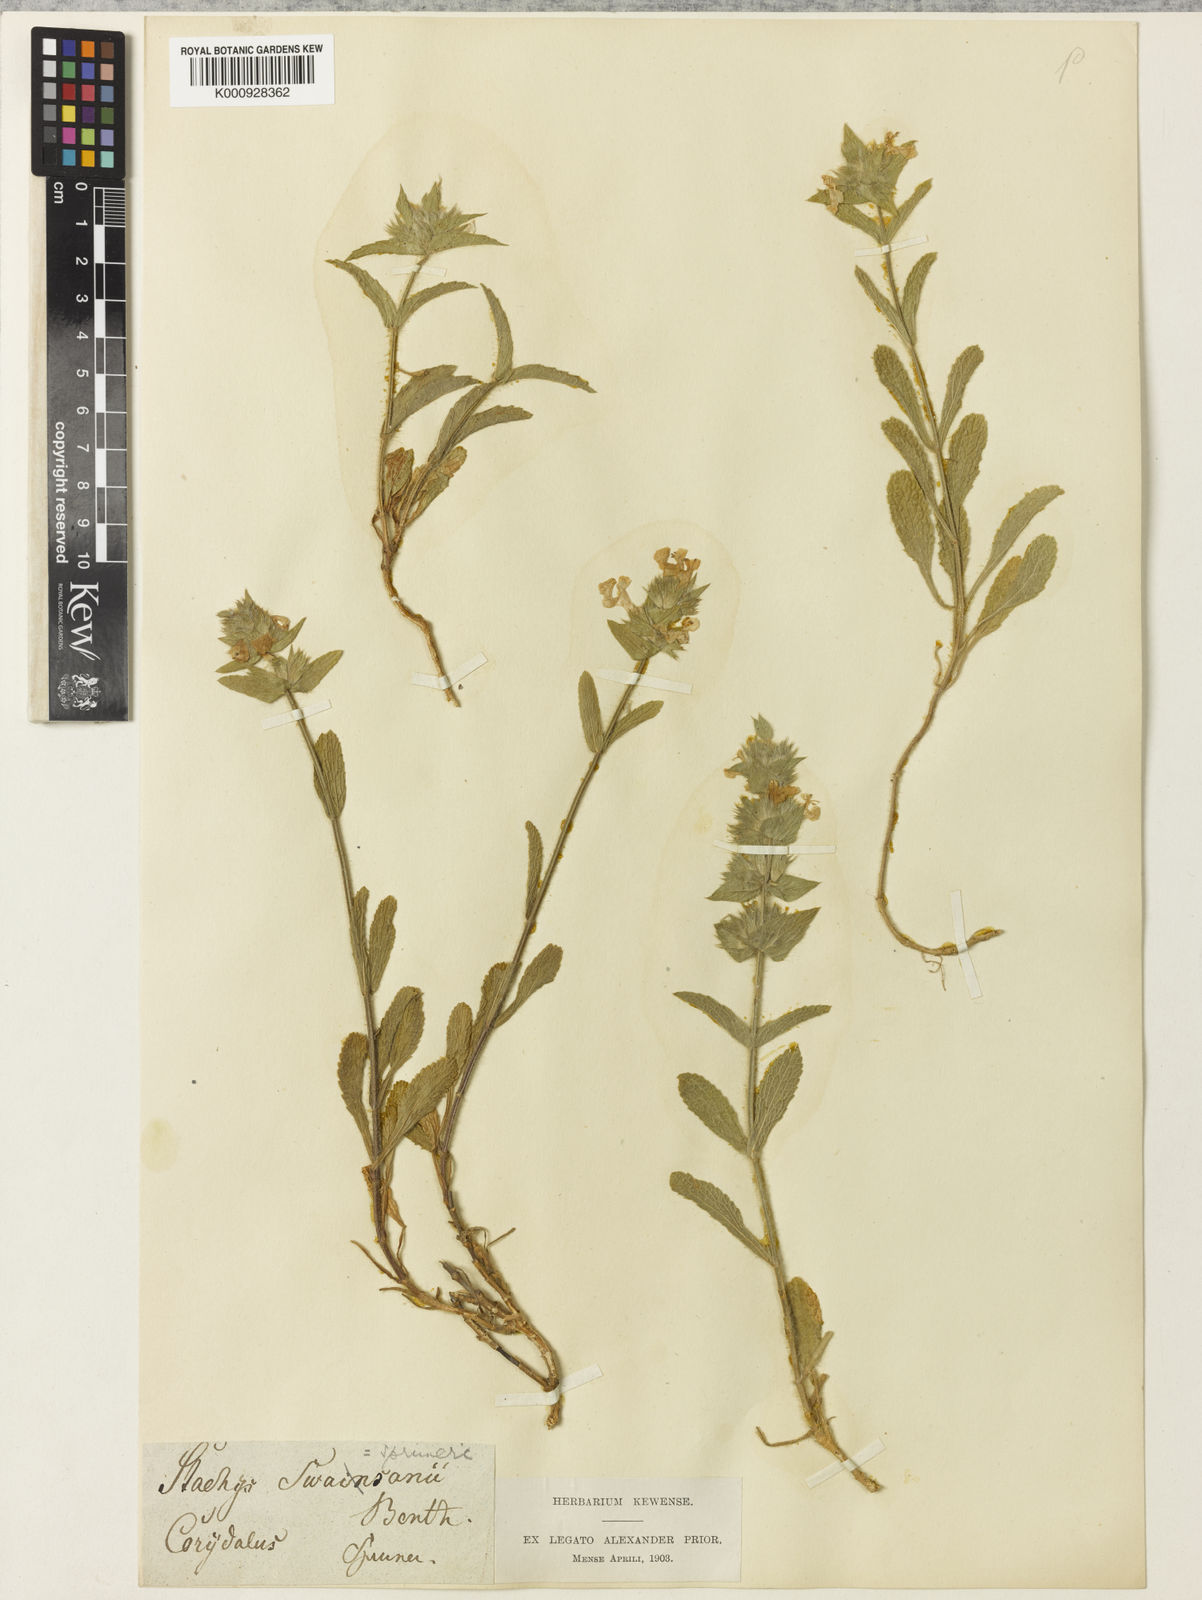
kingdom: Plantae
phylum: Tracheophyta
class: Magnoliopsida
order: Lamiales
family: Lamiaceae
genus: Stachys
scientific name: Stachys spruneri
